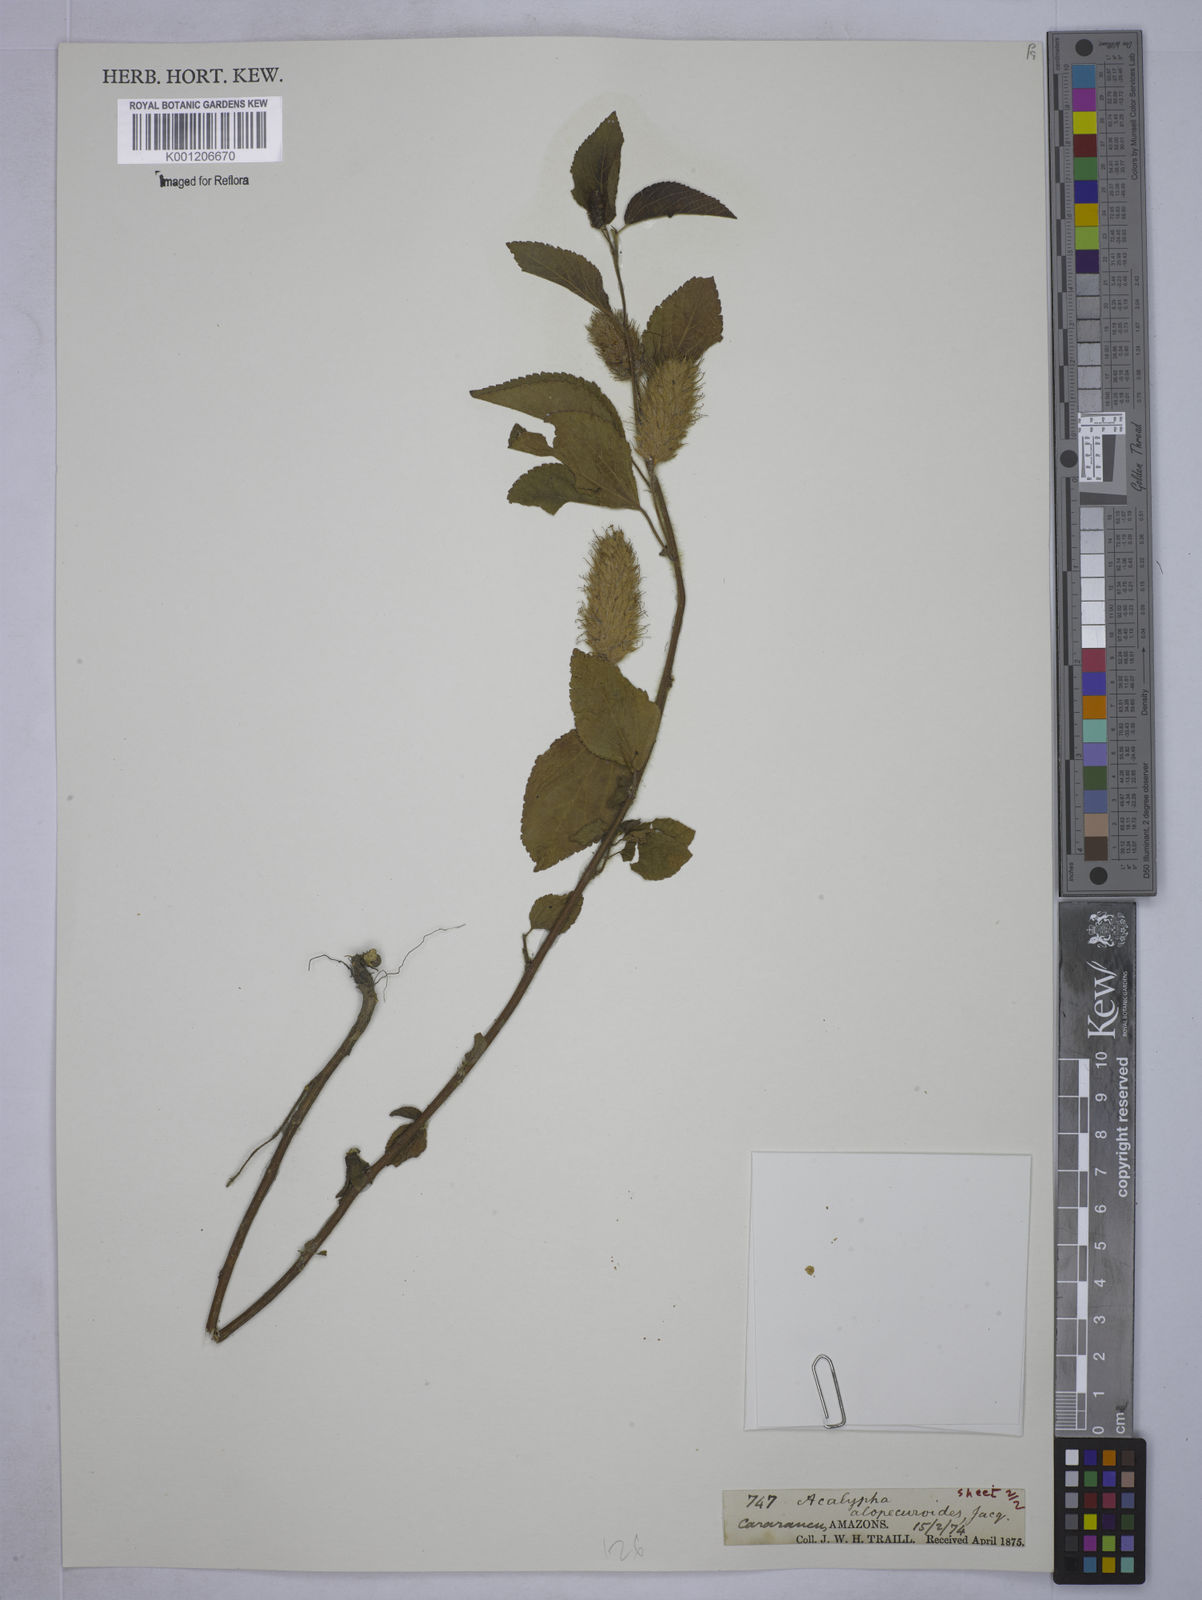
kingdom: Plantae
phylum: Tracheophyta
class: Magnoliopsida
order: Malpighiales
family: Euphorbiaceae
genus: Acalypha
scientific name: Acalypha arvensis
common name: Field copperleaf
